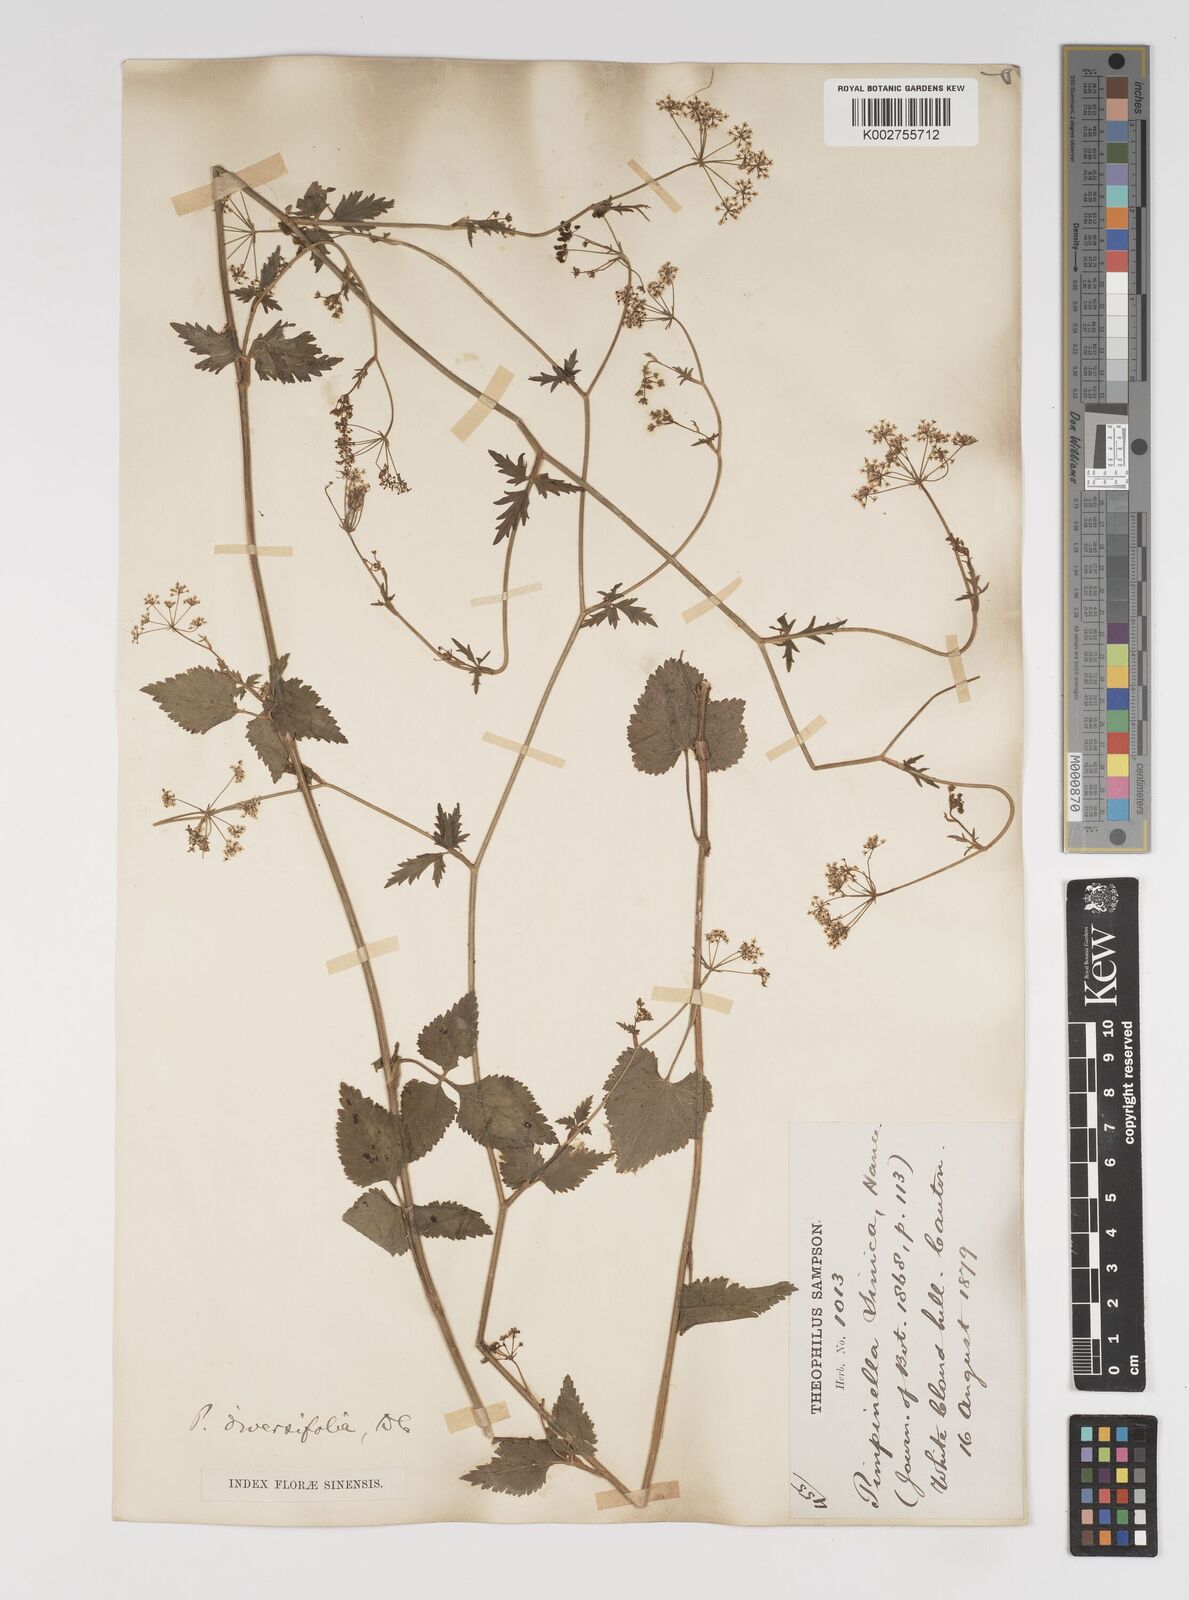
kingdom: Plantae
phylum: Tracheophyta
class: Magnoliopsida
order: Apiales
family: Apiaceae
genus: Pimpinella
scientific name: Pimpinella diversifolia
